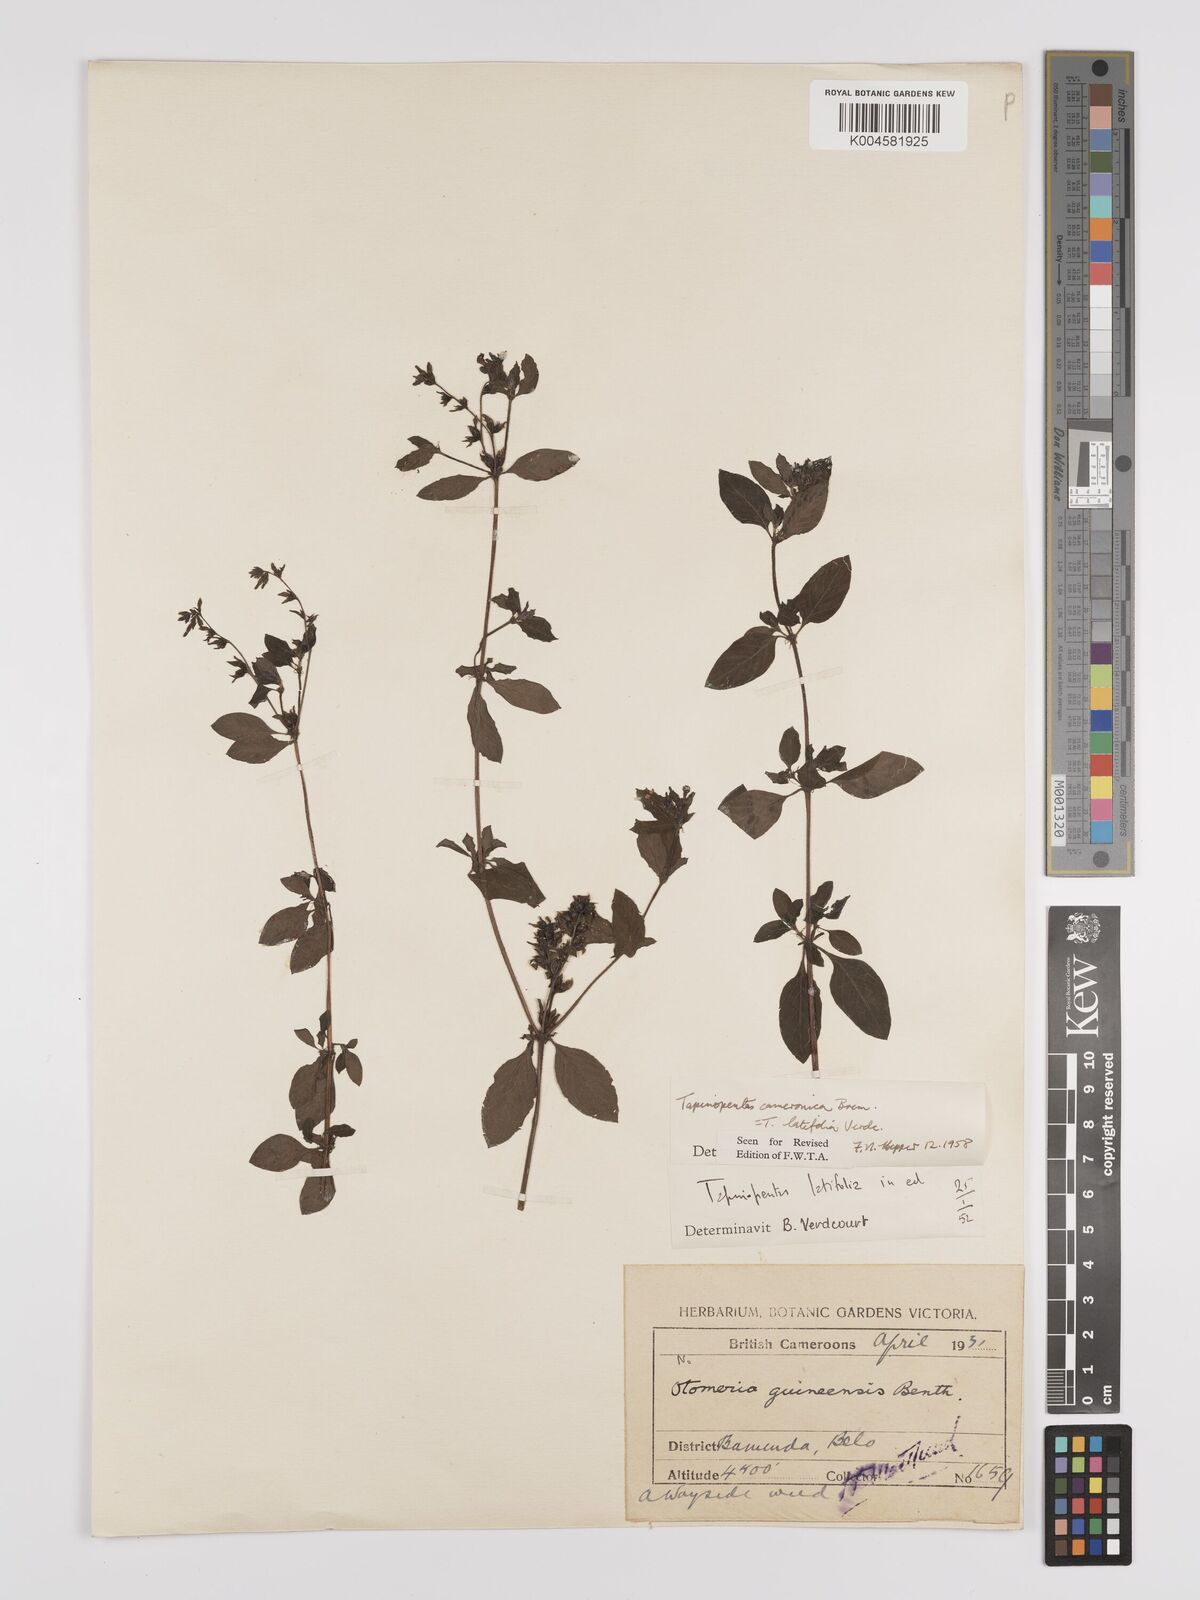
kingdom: Plantae
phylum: Tracheophyta
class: Magnoliopsida
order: Gentianales
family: Rubiaceae
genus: Otomeria
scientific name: Otomeria cameronica
